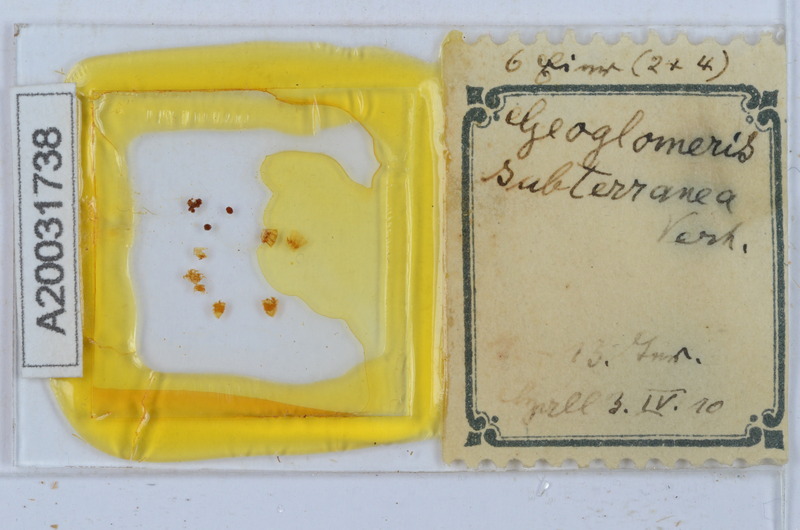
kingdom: Animalia
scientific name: Animalia
